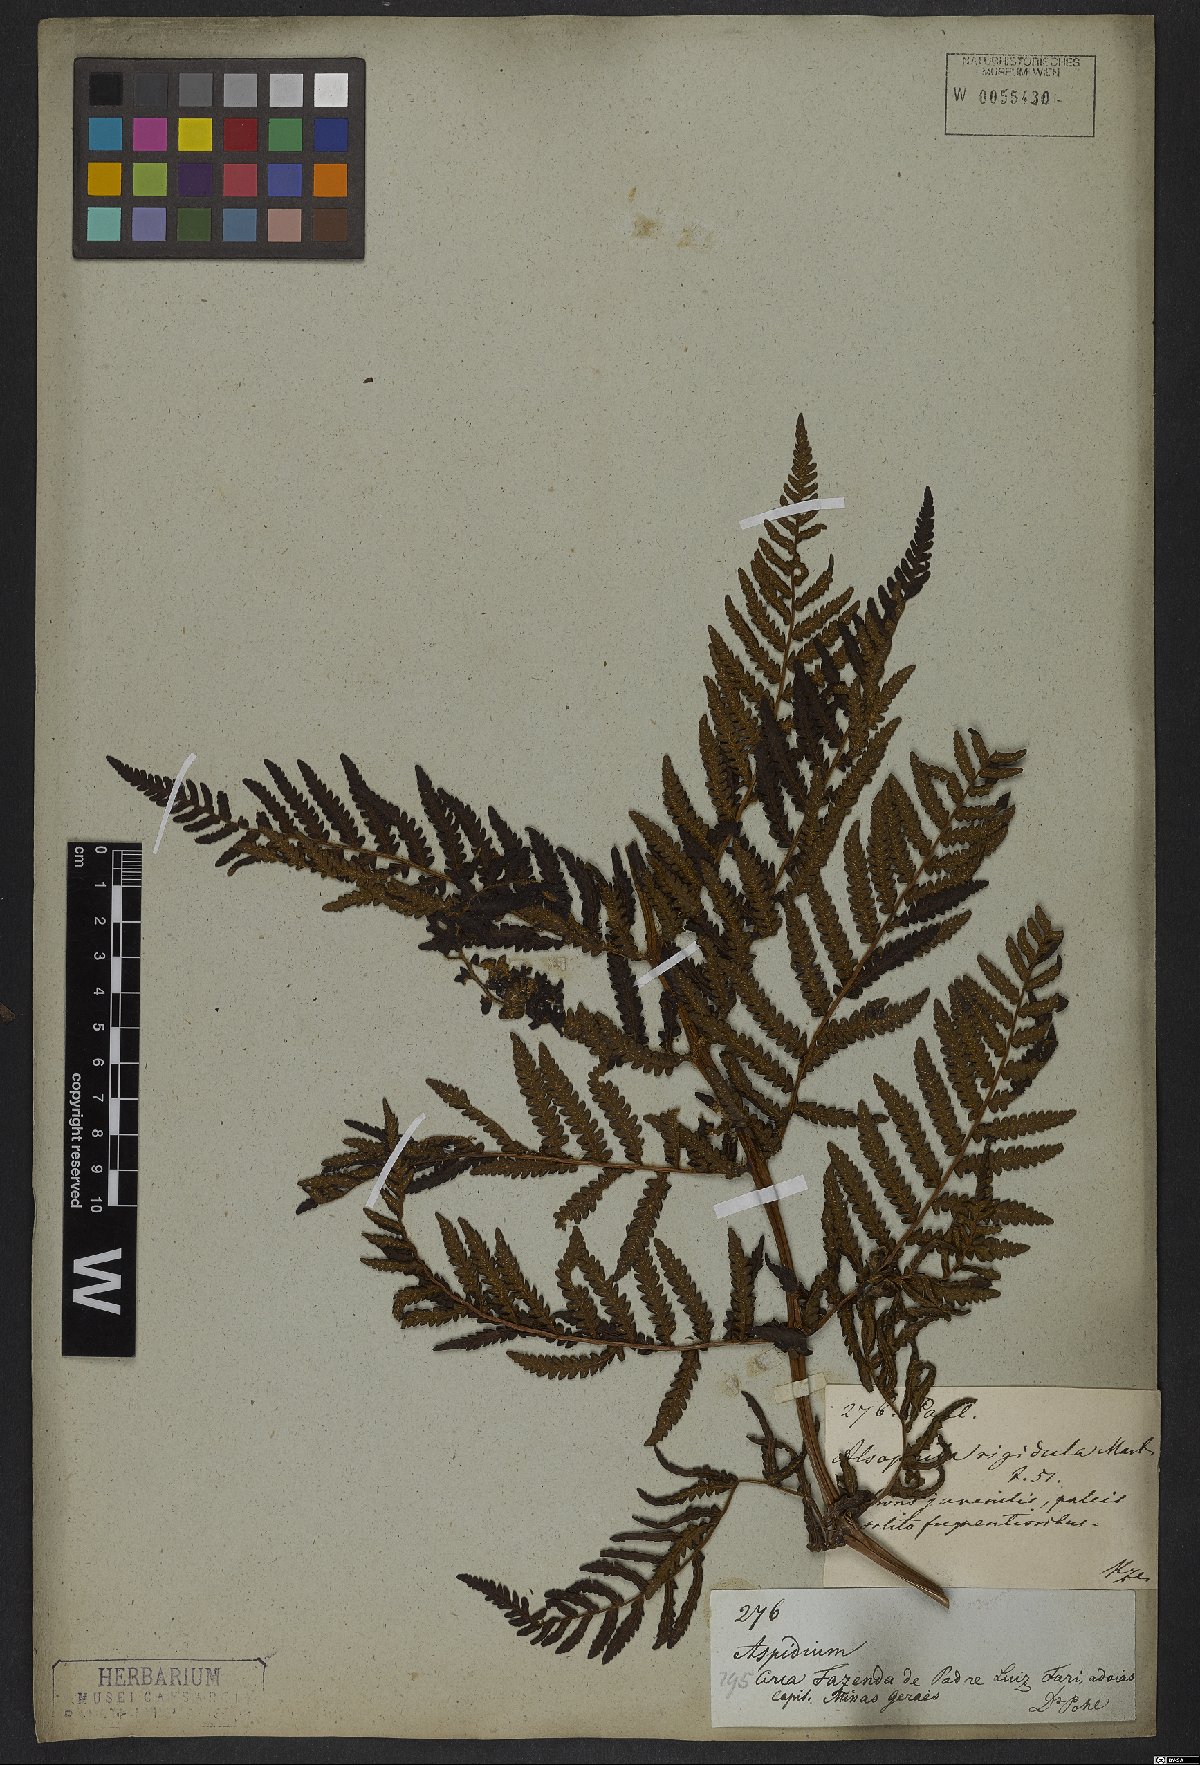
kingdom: Plantae
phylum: Tracheophyta
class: Polypodiopsida
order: Cyatheales
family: Cyatheaceae
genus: Cyathea
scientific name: Cyathea villosa
